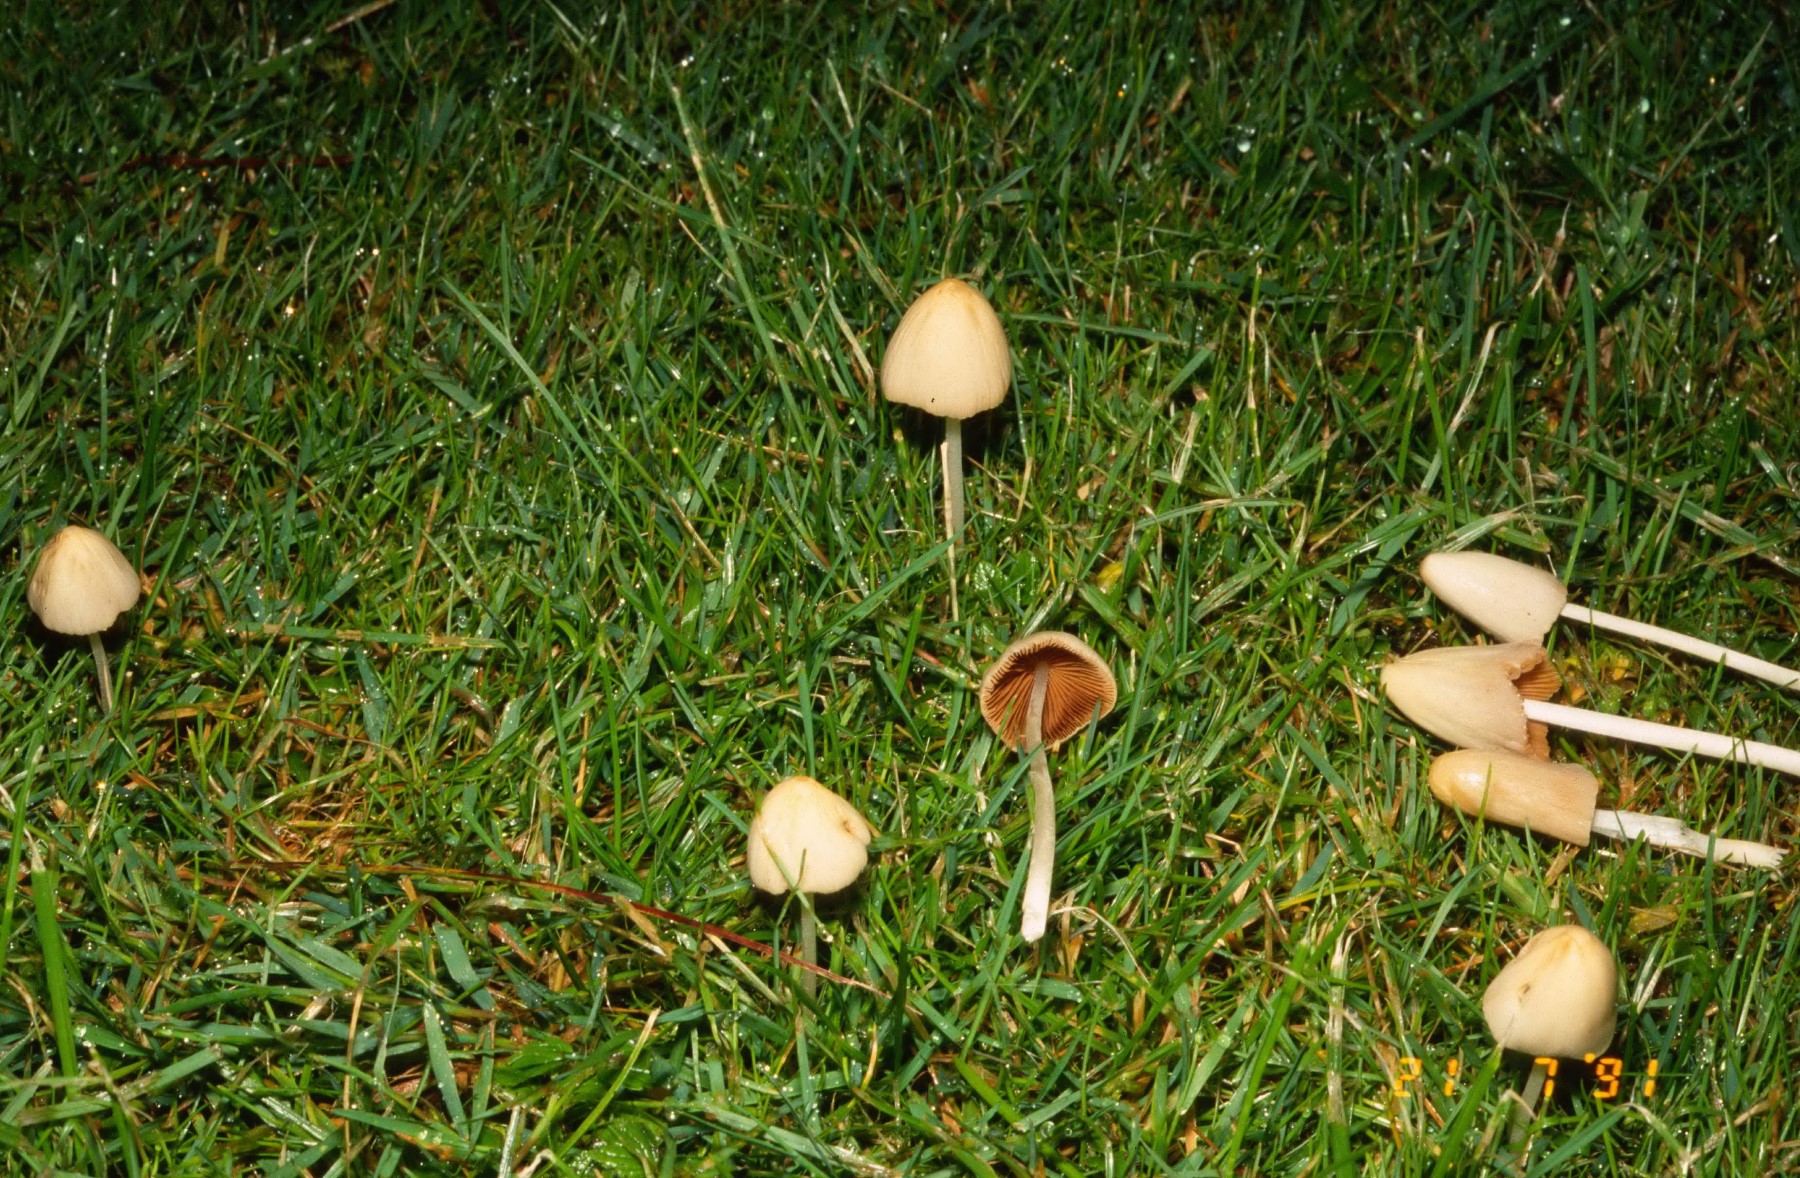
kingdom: Fungi
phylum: Basidiomycota
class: Agaricomycetes
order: Agaricales
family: Bolbitiaceae
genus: Conocybe
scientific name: Conocybe apala
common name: mælkehvid keglehat
